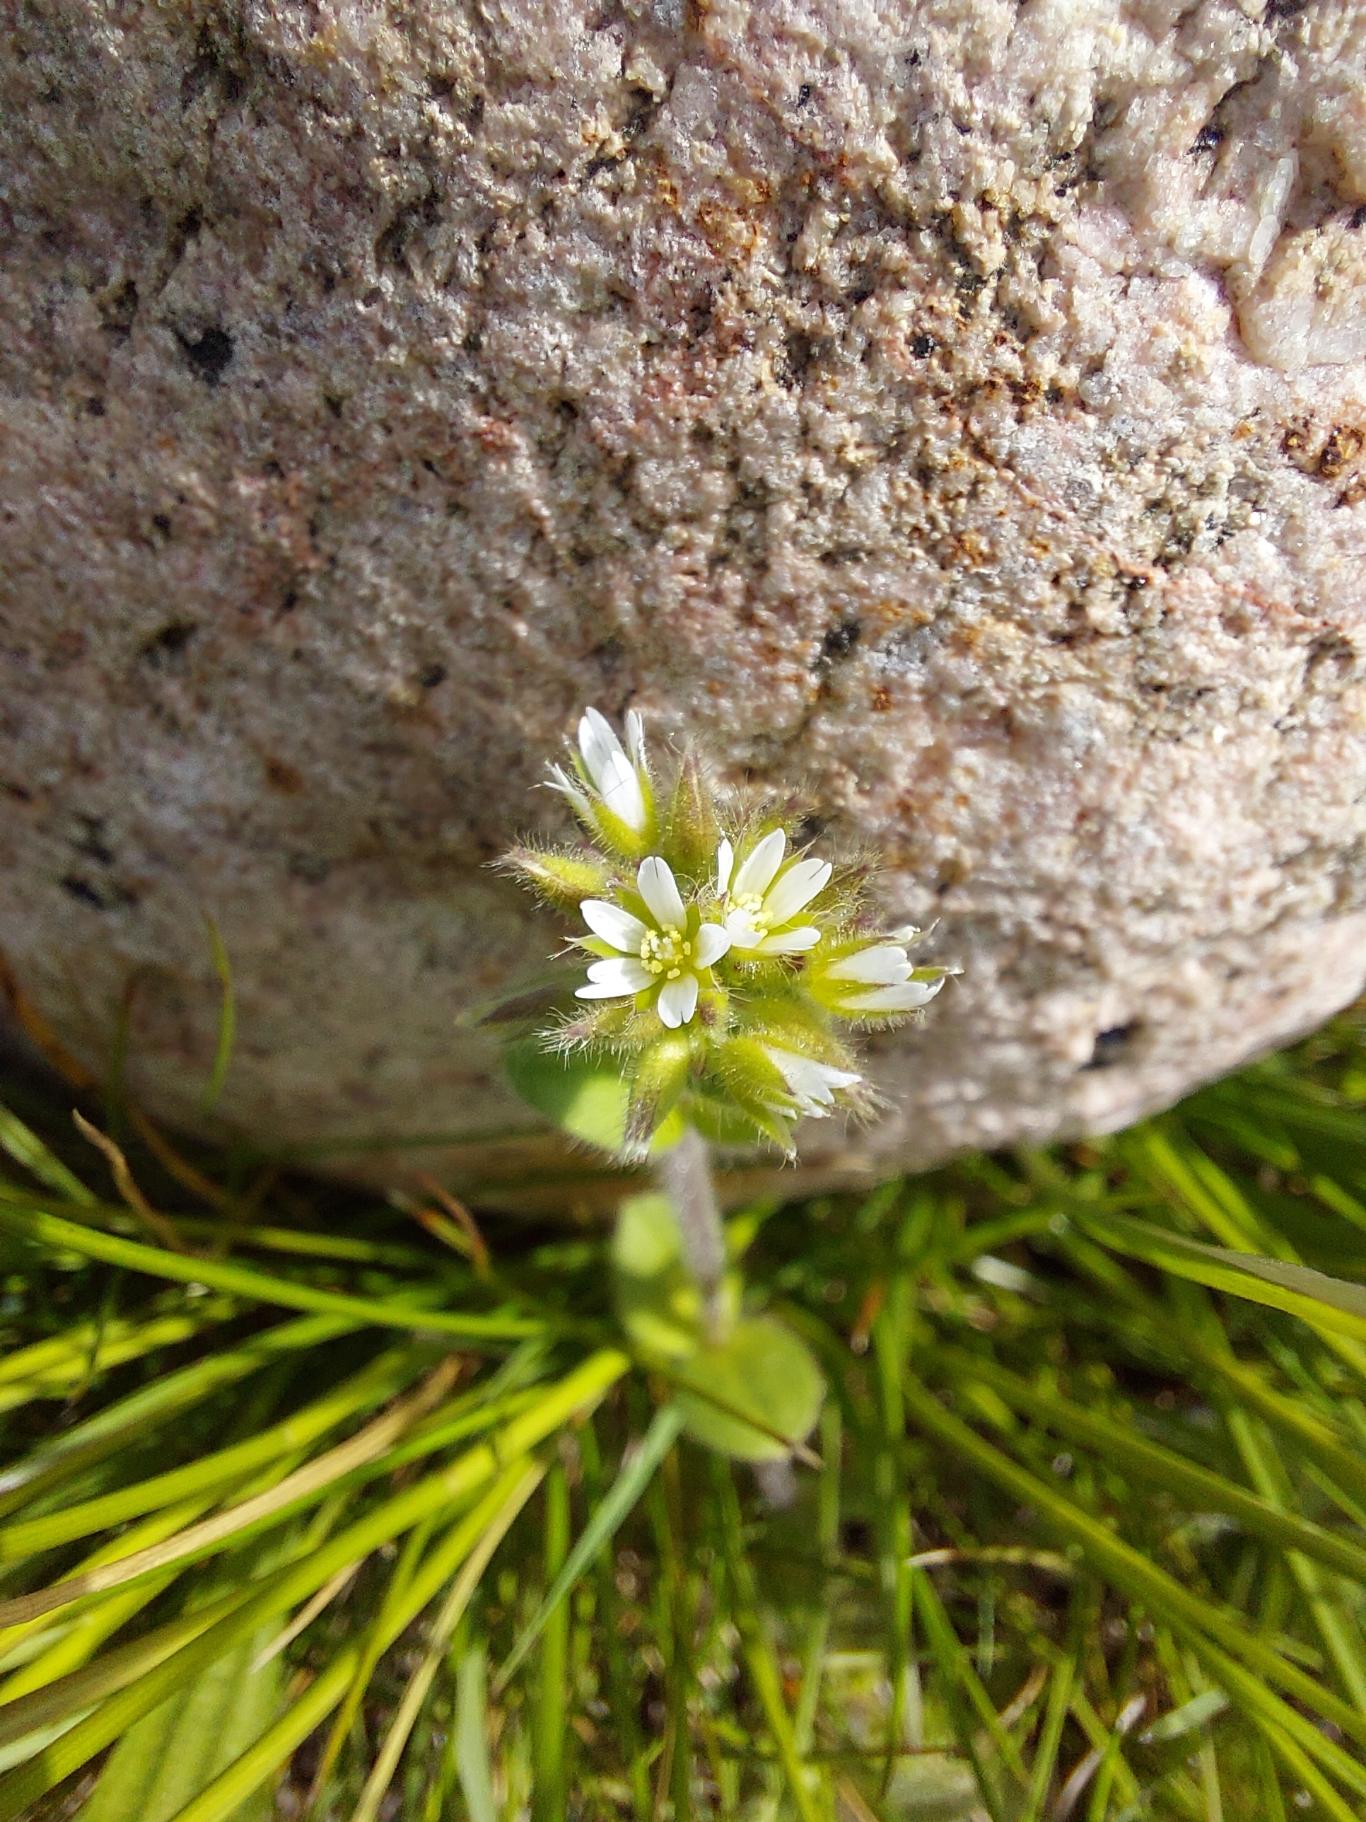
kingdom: Plantae
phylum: Tracheophyta
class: Magnoliopsida
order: Caryophyllales
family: Caryophyllaceae
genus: Cerastium
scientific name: Cerastium glomeratum
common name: Opret hønsetarm
